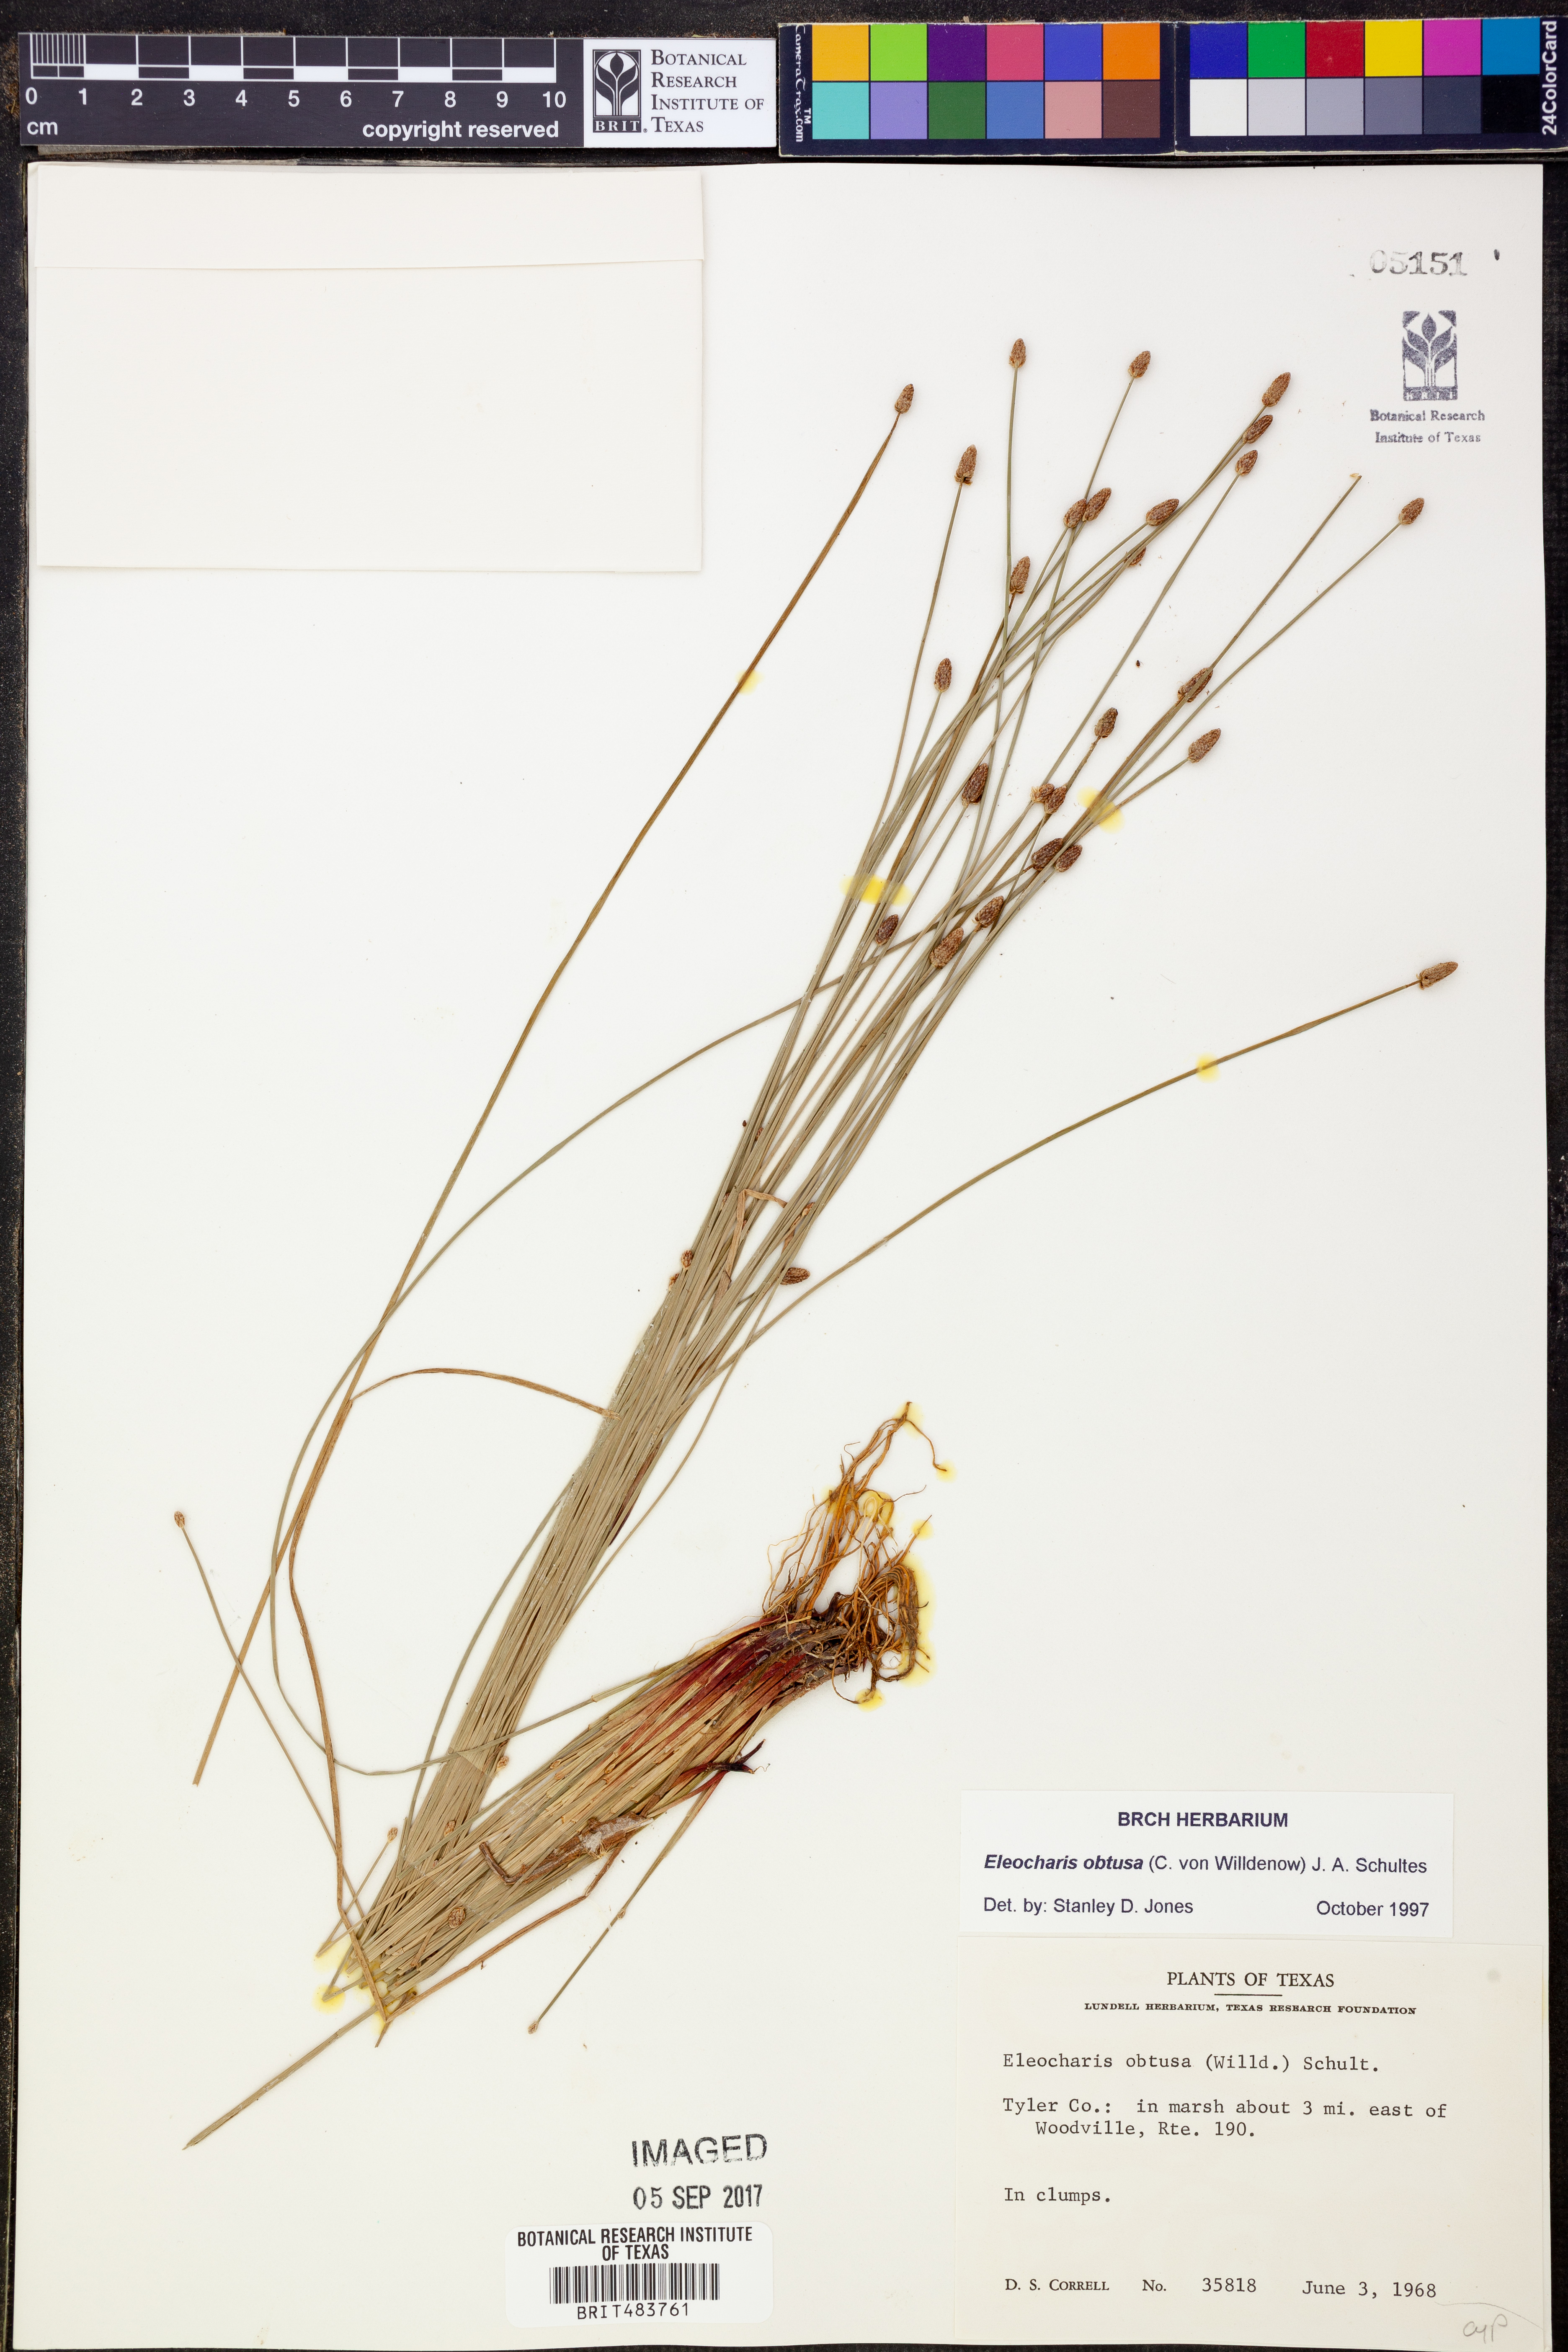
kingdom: Plantae
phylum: Tracheophyta
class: Liliopsida
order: Poales
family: Cyperaceae
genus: Eleocharis
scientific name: Eleocharis obtusa
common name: Blunt spikerush
